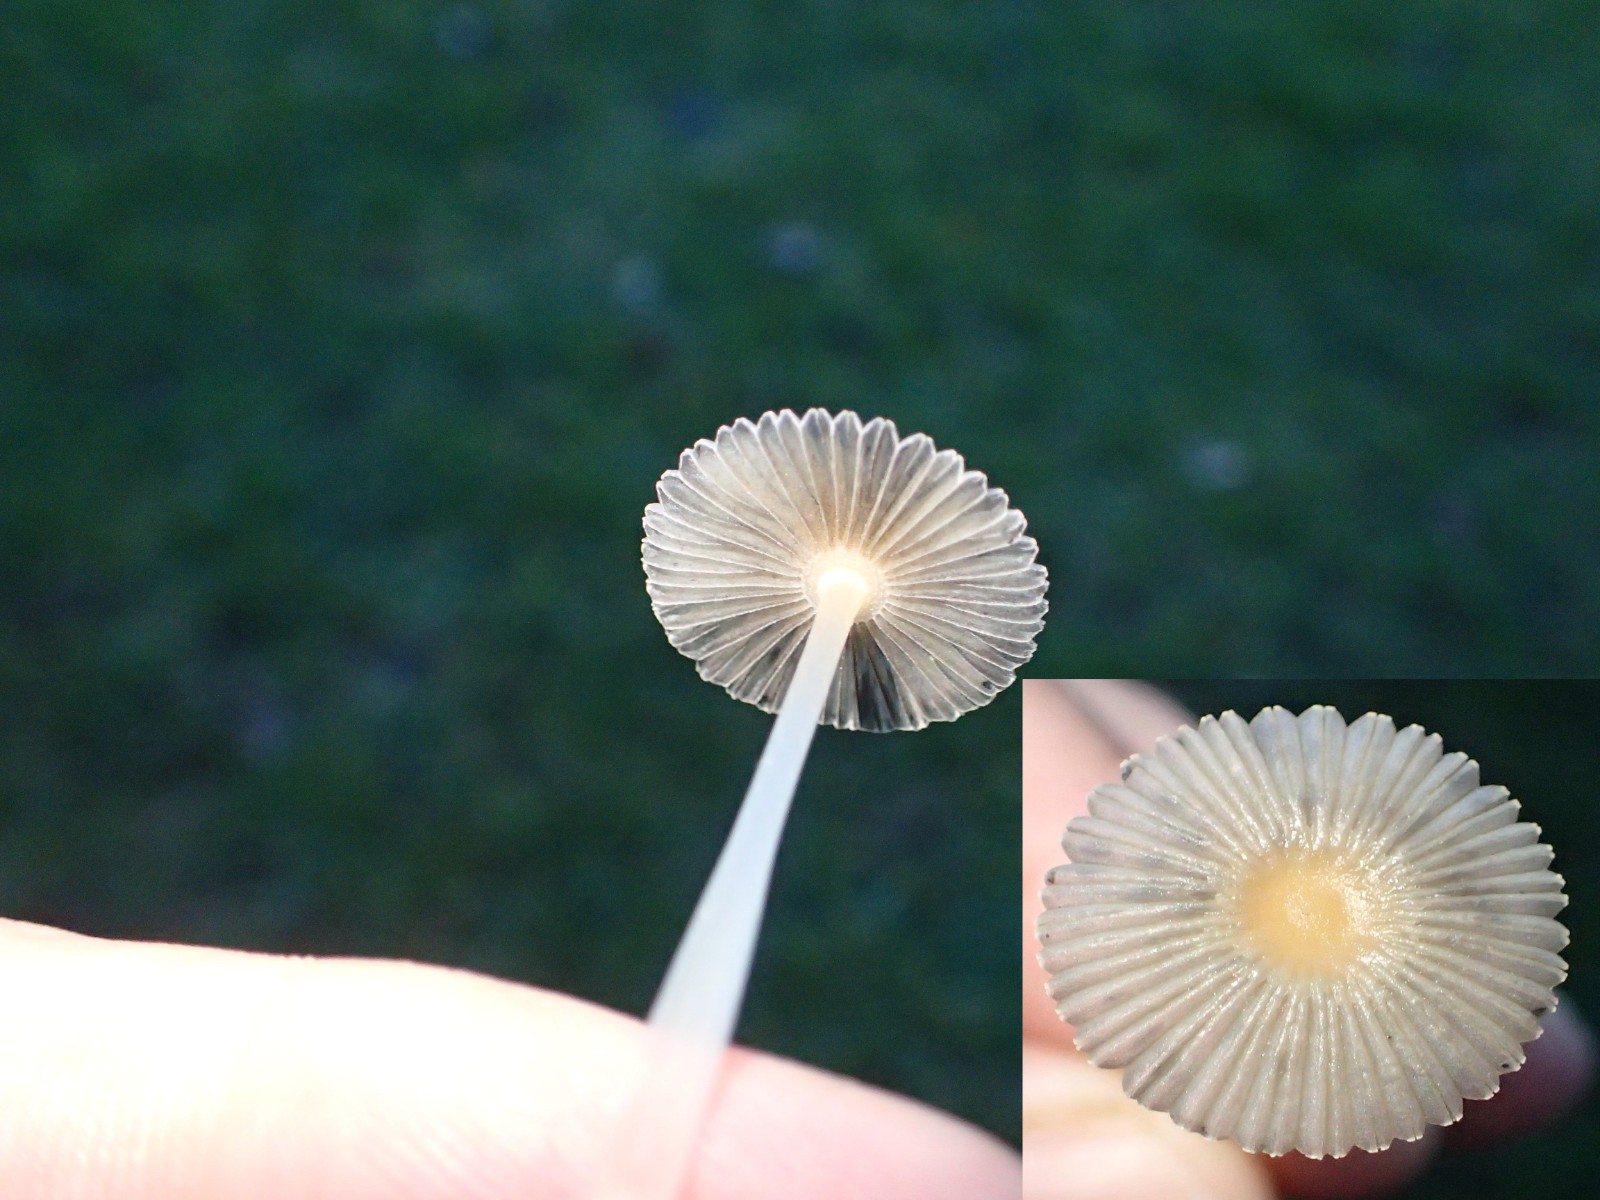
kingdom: Fungi
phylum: Basidiomycota
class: Agaricomycetes
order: Agaricales
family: Psathyrellaceae
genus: Parasola
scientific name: Parasola
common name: hjulhat
